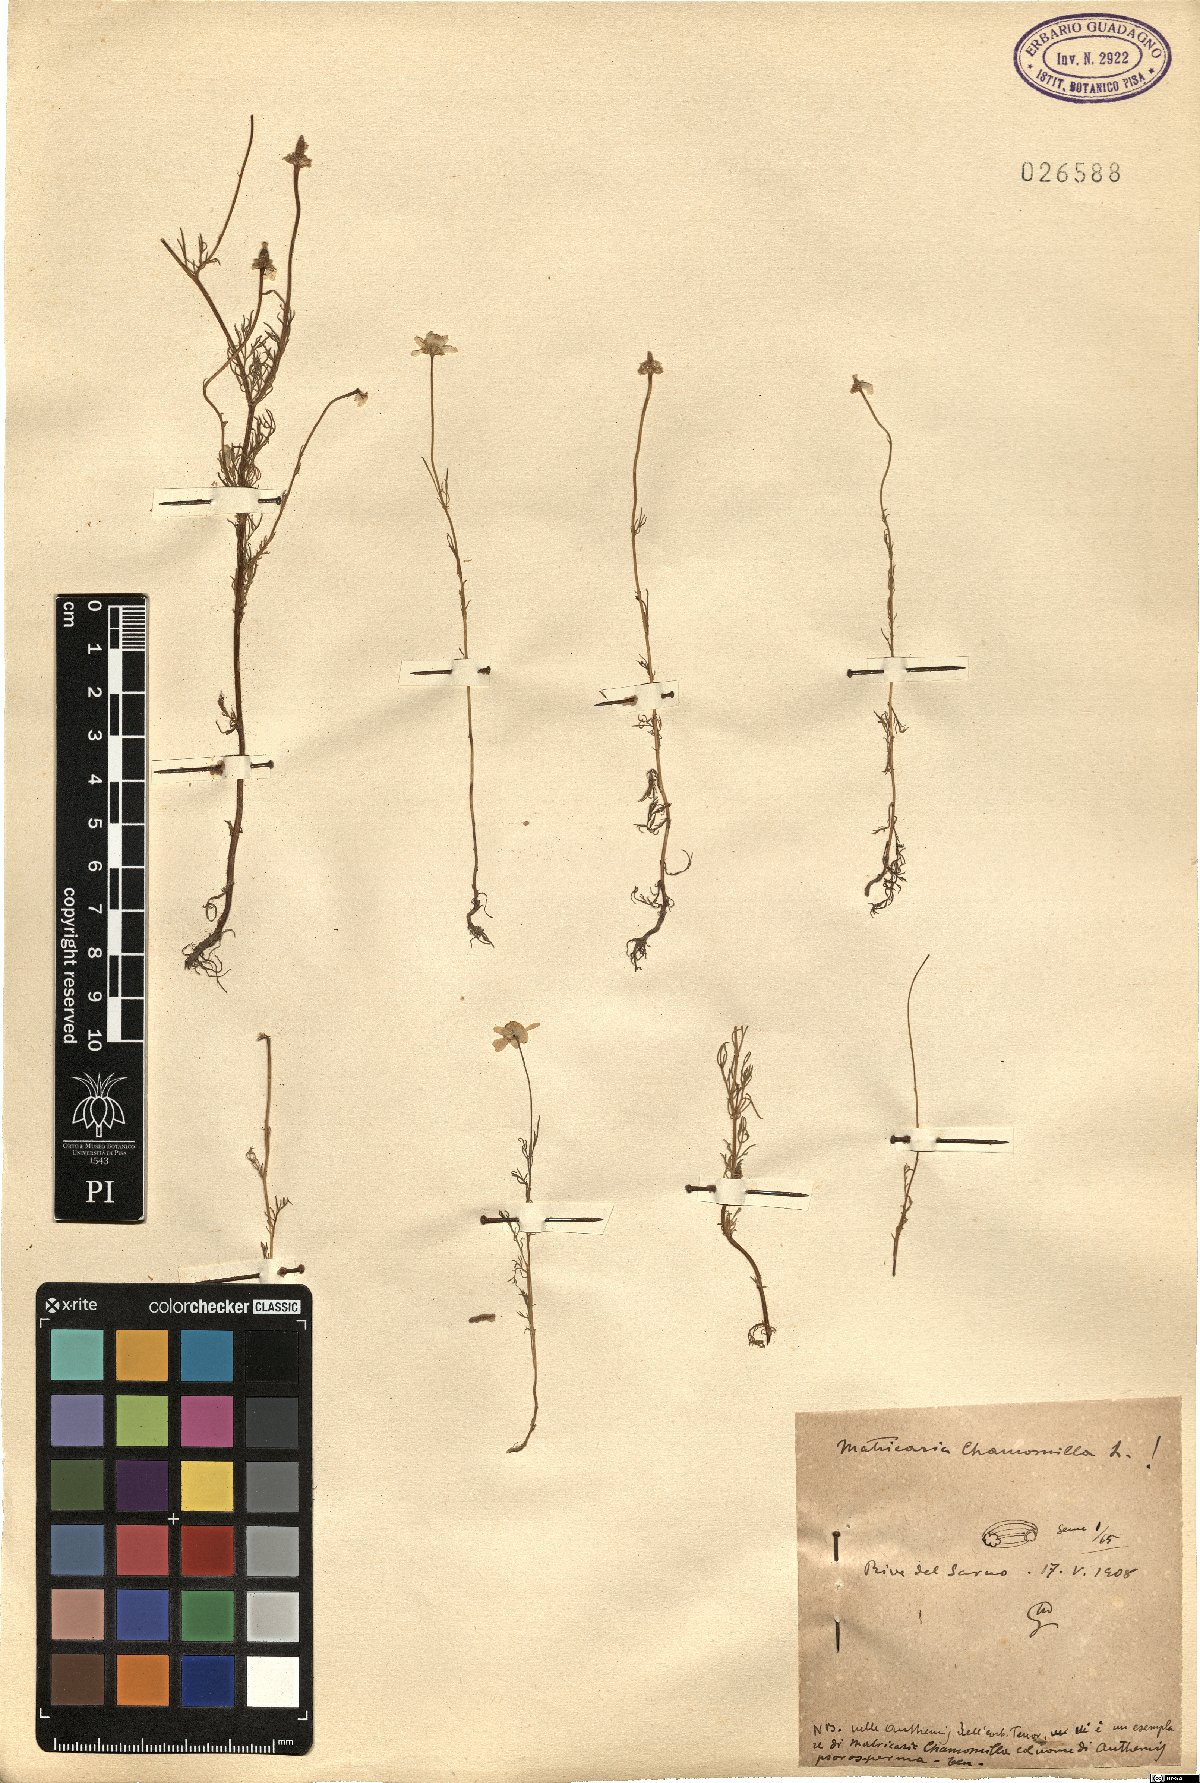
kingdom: Plantae
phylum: Tracheophyta
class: Magnoliopsida
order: Asterales
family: Asteraceae
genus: Matricaria
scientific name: Matricaria chamomilla
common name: Scented mayweed
